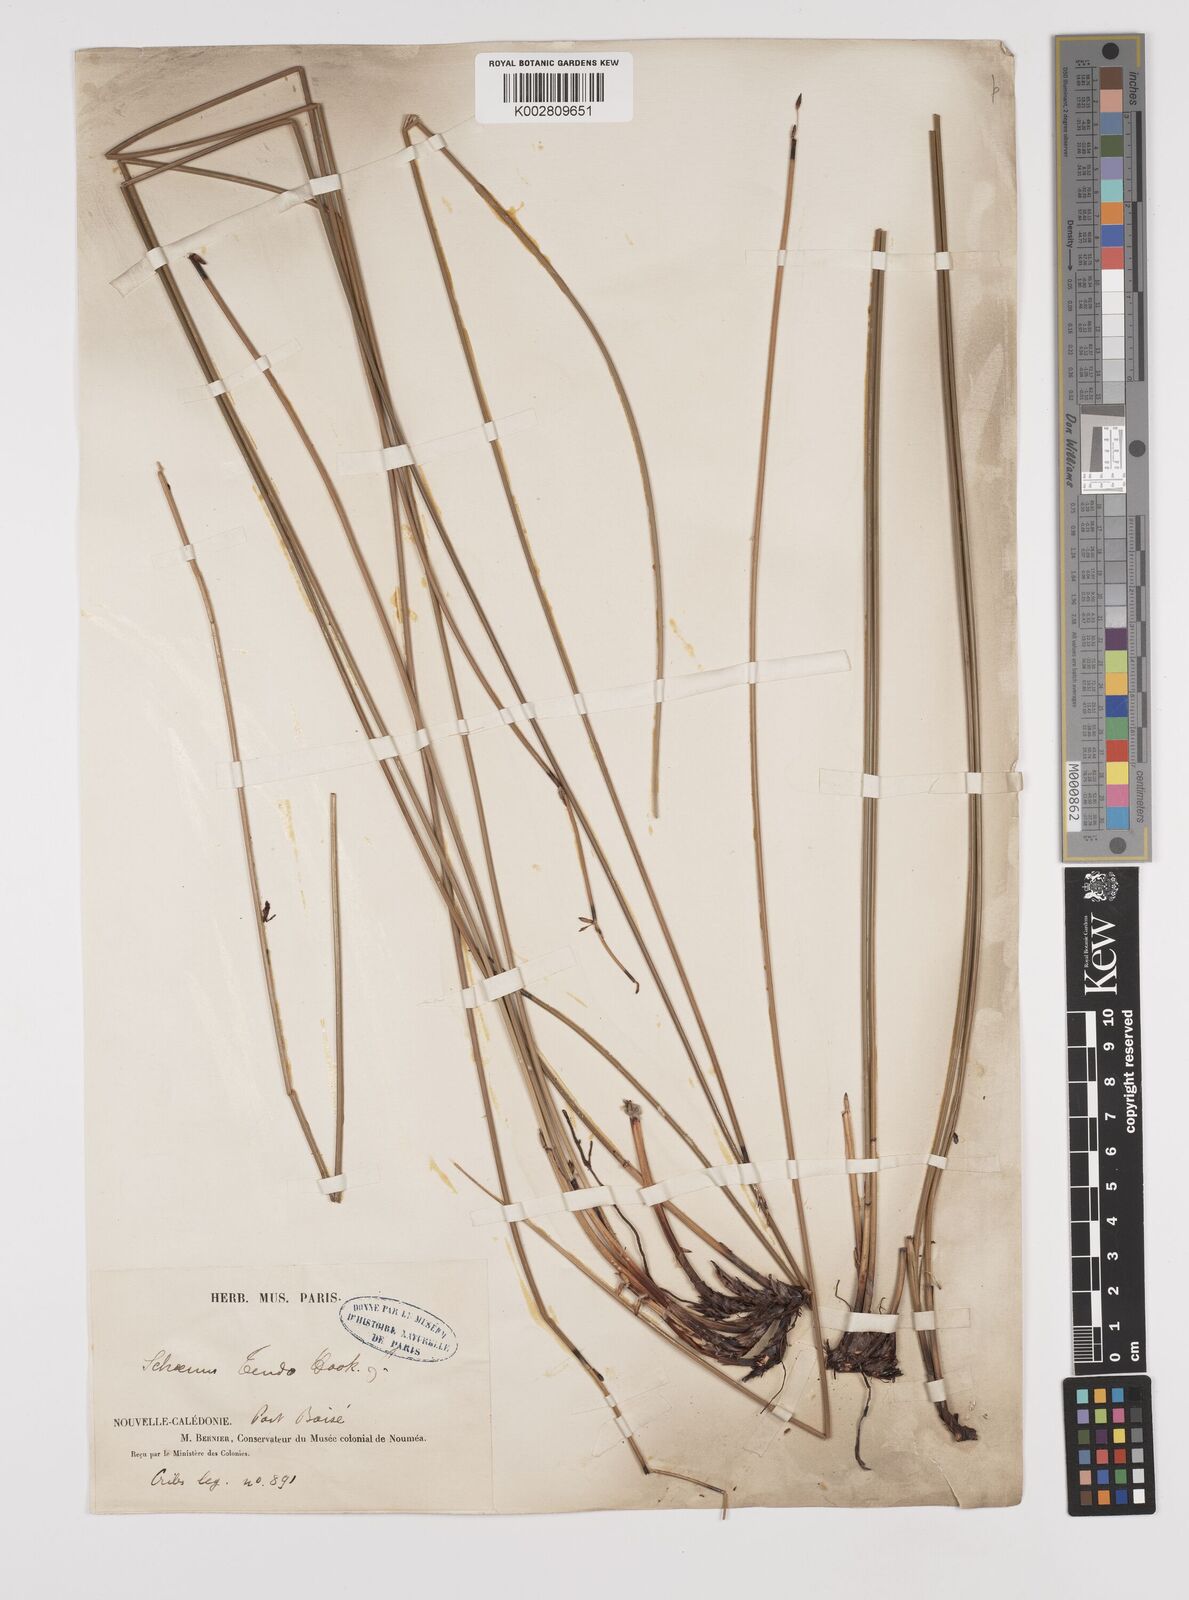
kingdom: Plantae
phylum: Tracheophyta
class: Liliopsida
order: Poales
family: Cyperaceae
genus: Schoenus
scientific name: Schoenus tendo
